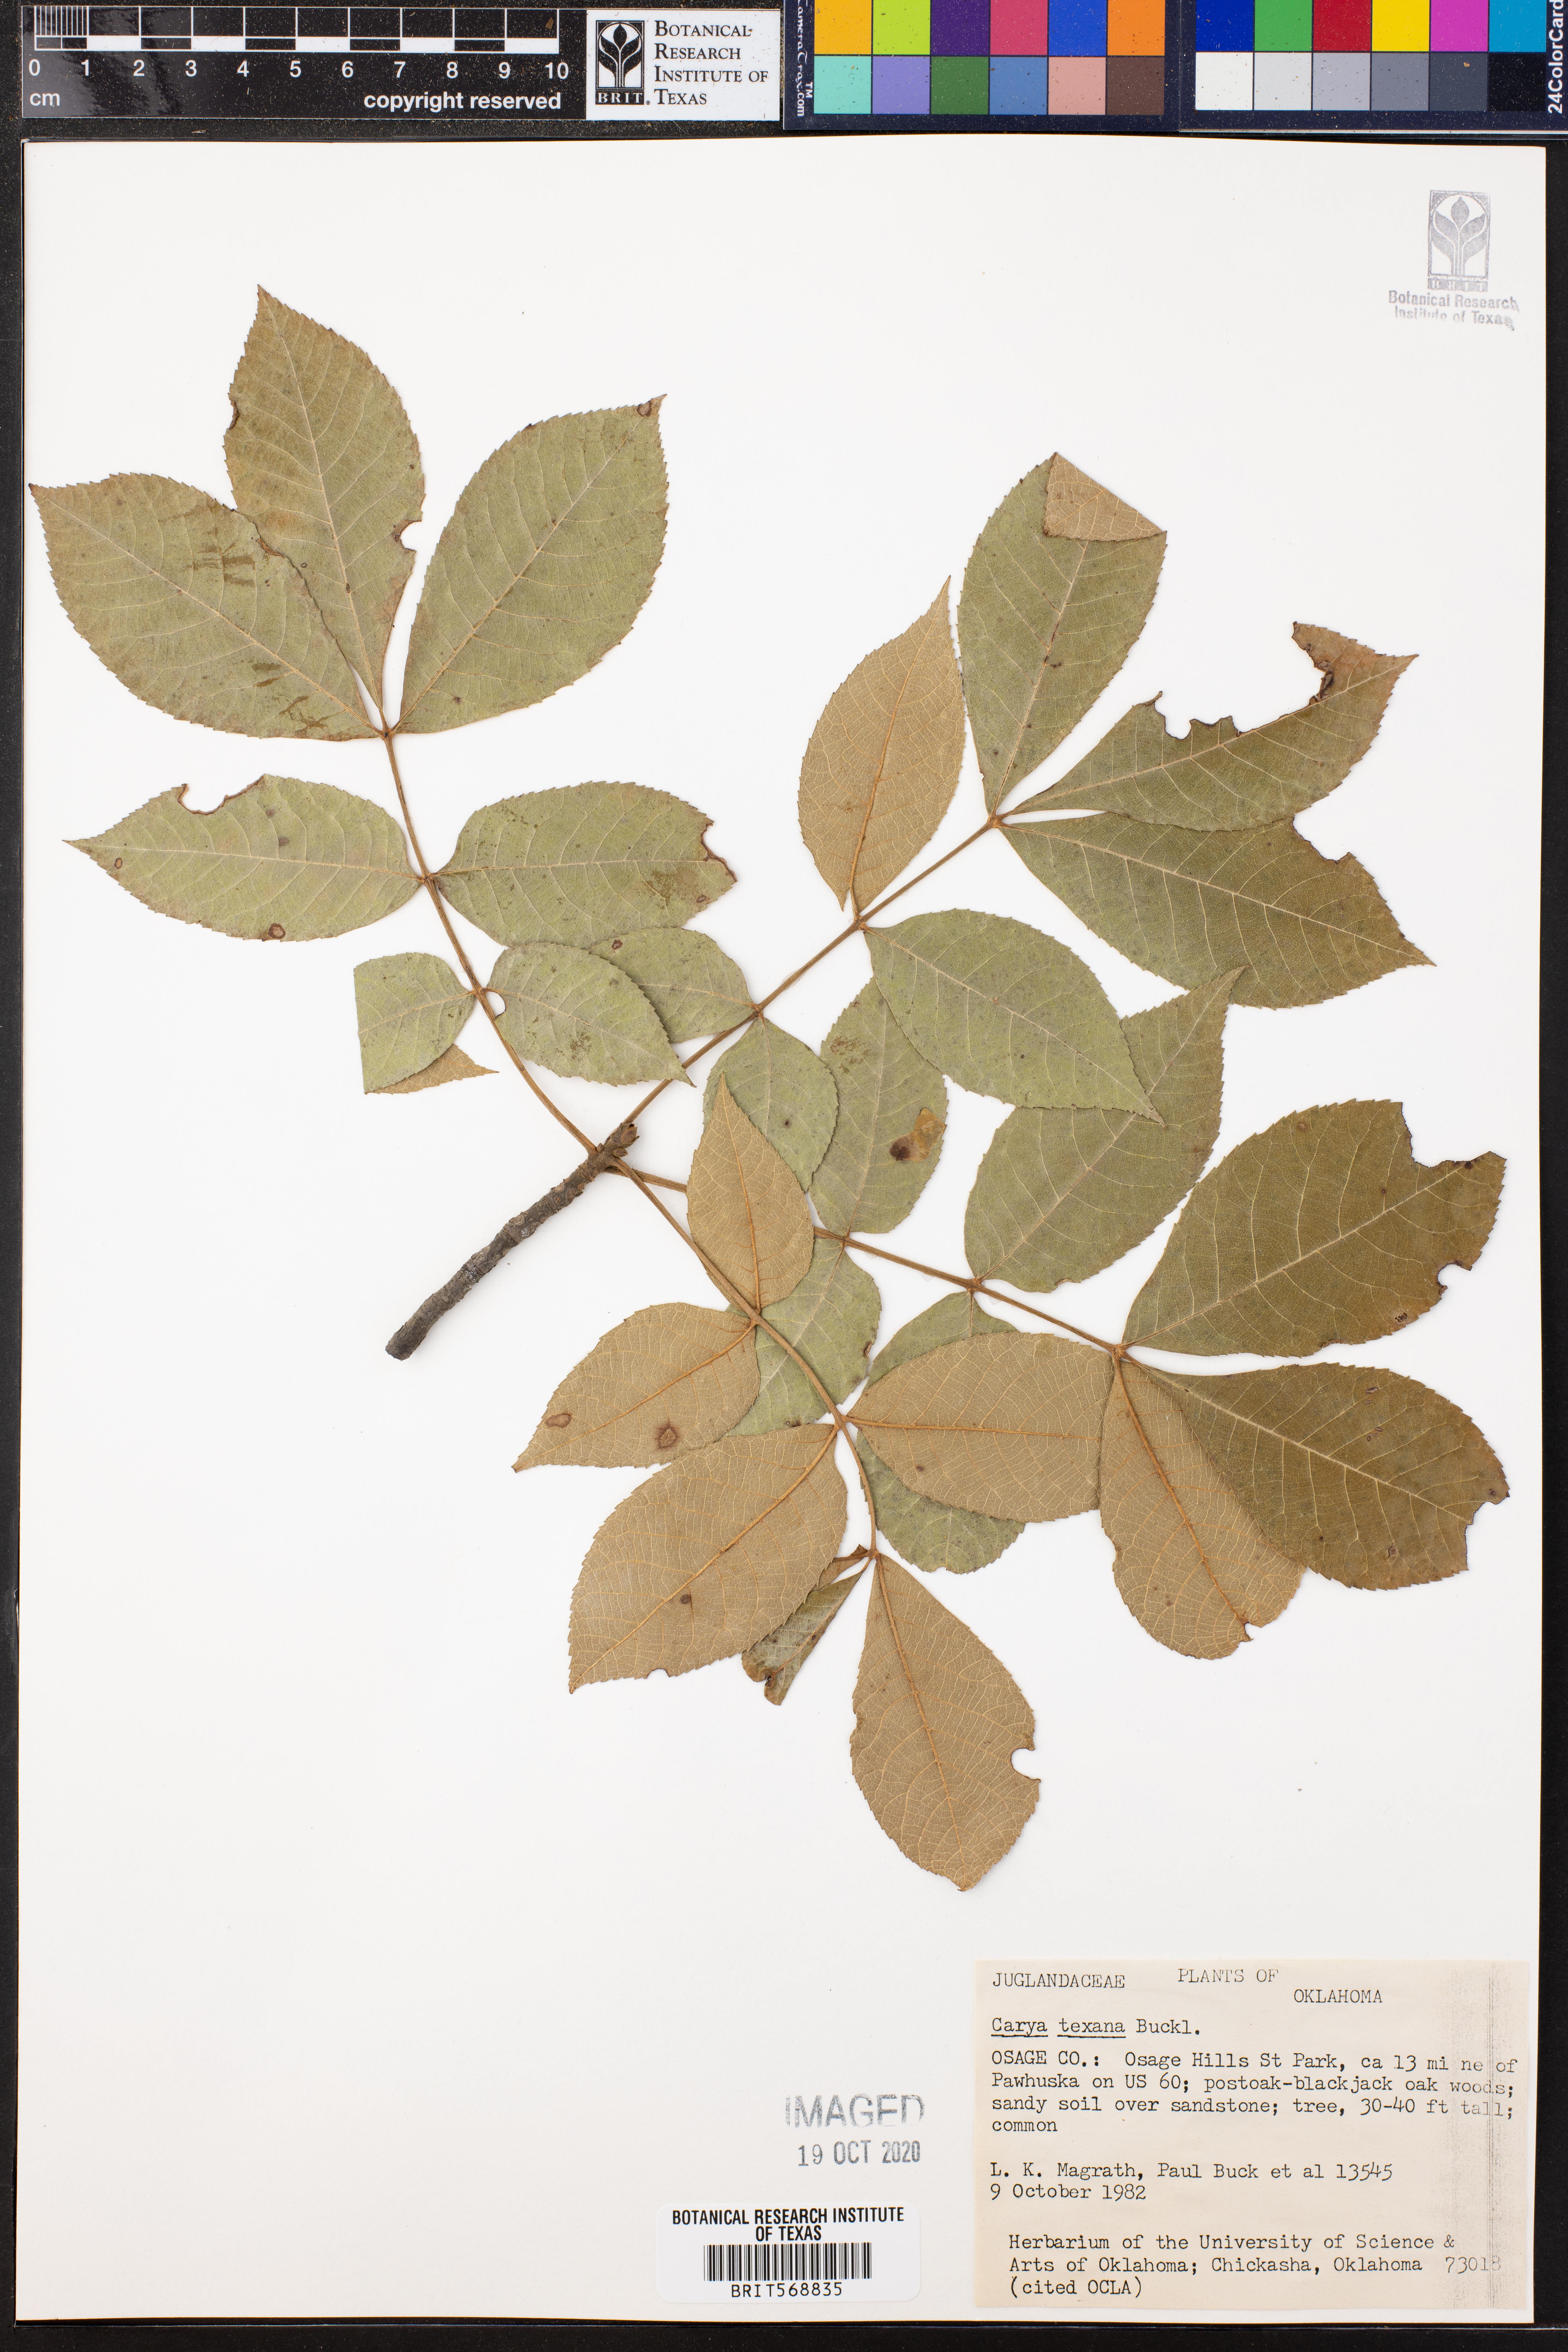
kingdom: Plantae
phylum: Tracheophyta
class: Magnoliopsida
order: Fagales
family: Juglandaceae
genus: Carya
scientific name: Carya texana
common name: Black hickory
